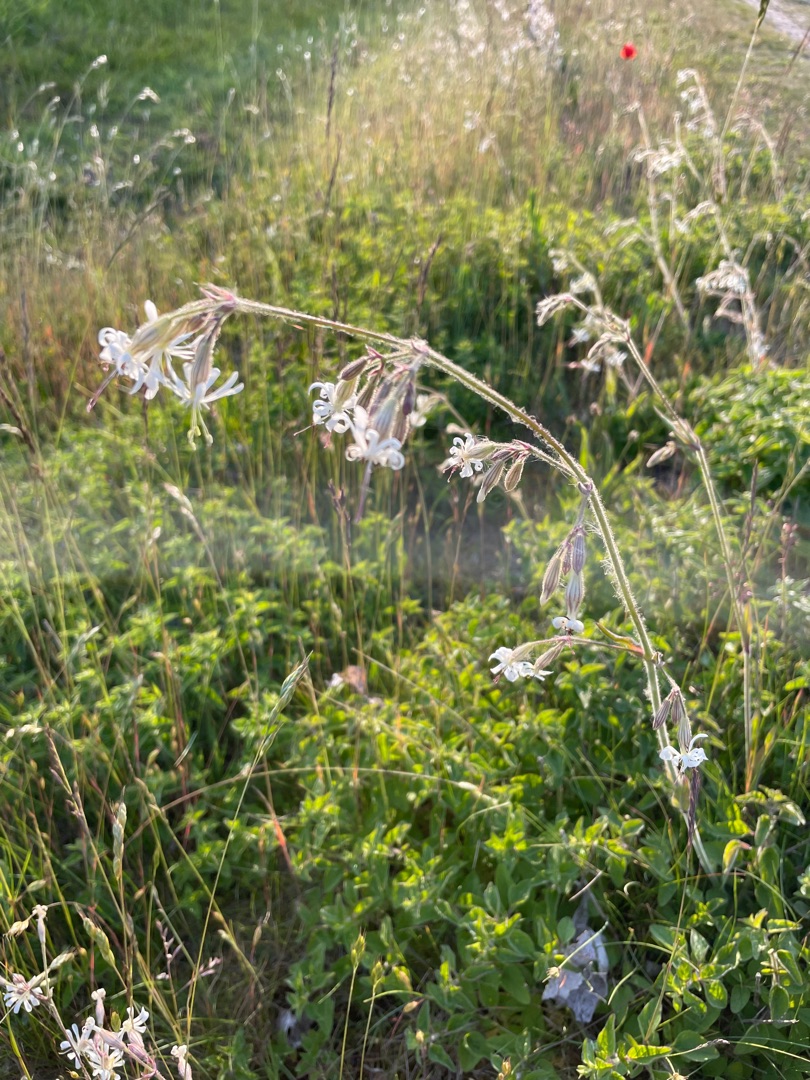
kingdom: Plantae
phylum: Tracheophyta
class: Magnoliopsida
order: Caryophyllales
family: Caryophyllaceae
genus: Silene
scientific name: Silene nutans
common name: Nikkende limurt
